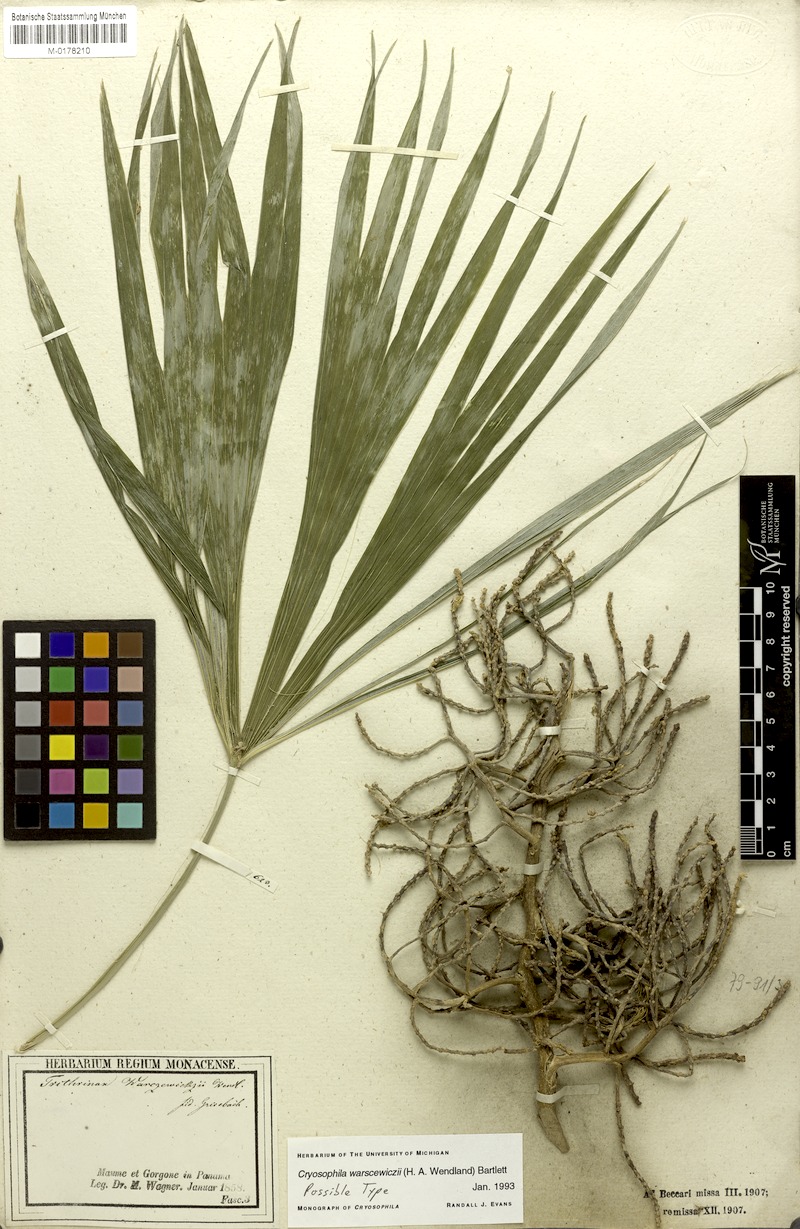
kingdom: Plantae
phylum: Tracheophyta
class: Liliopsida
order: Arecales
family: Arecaceae
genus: Cryosophila
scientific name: Cryosophila warscewiczii
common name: Root-spine palm
